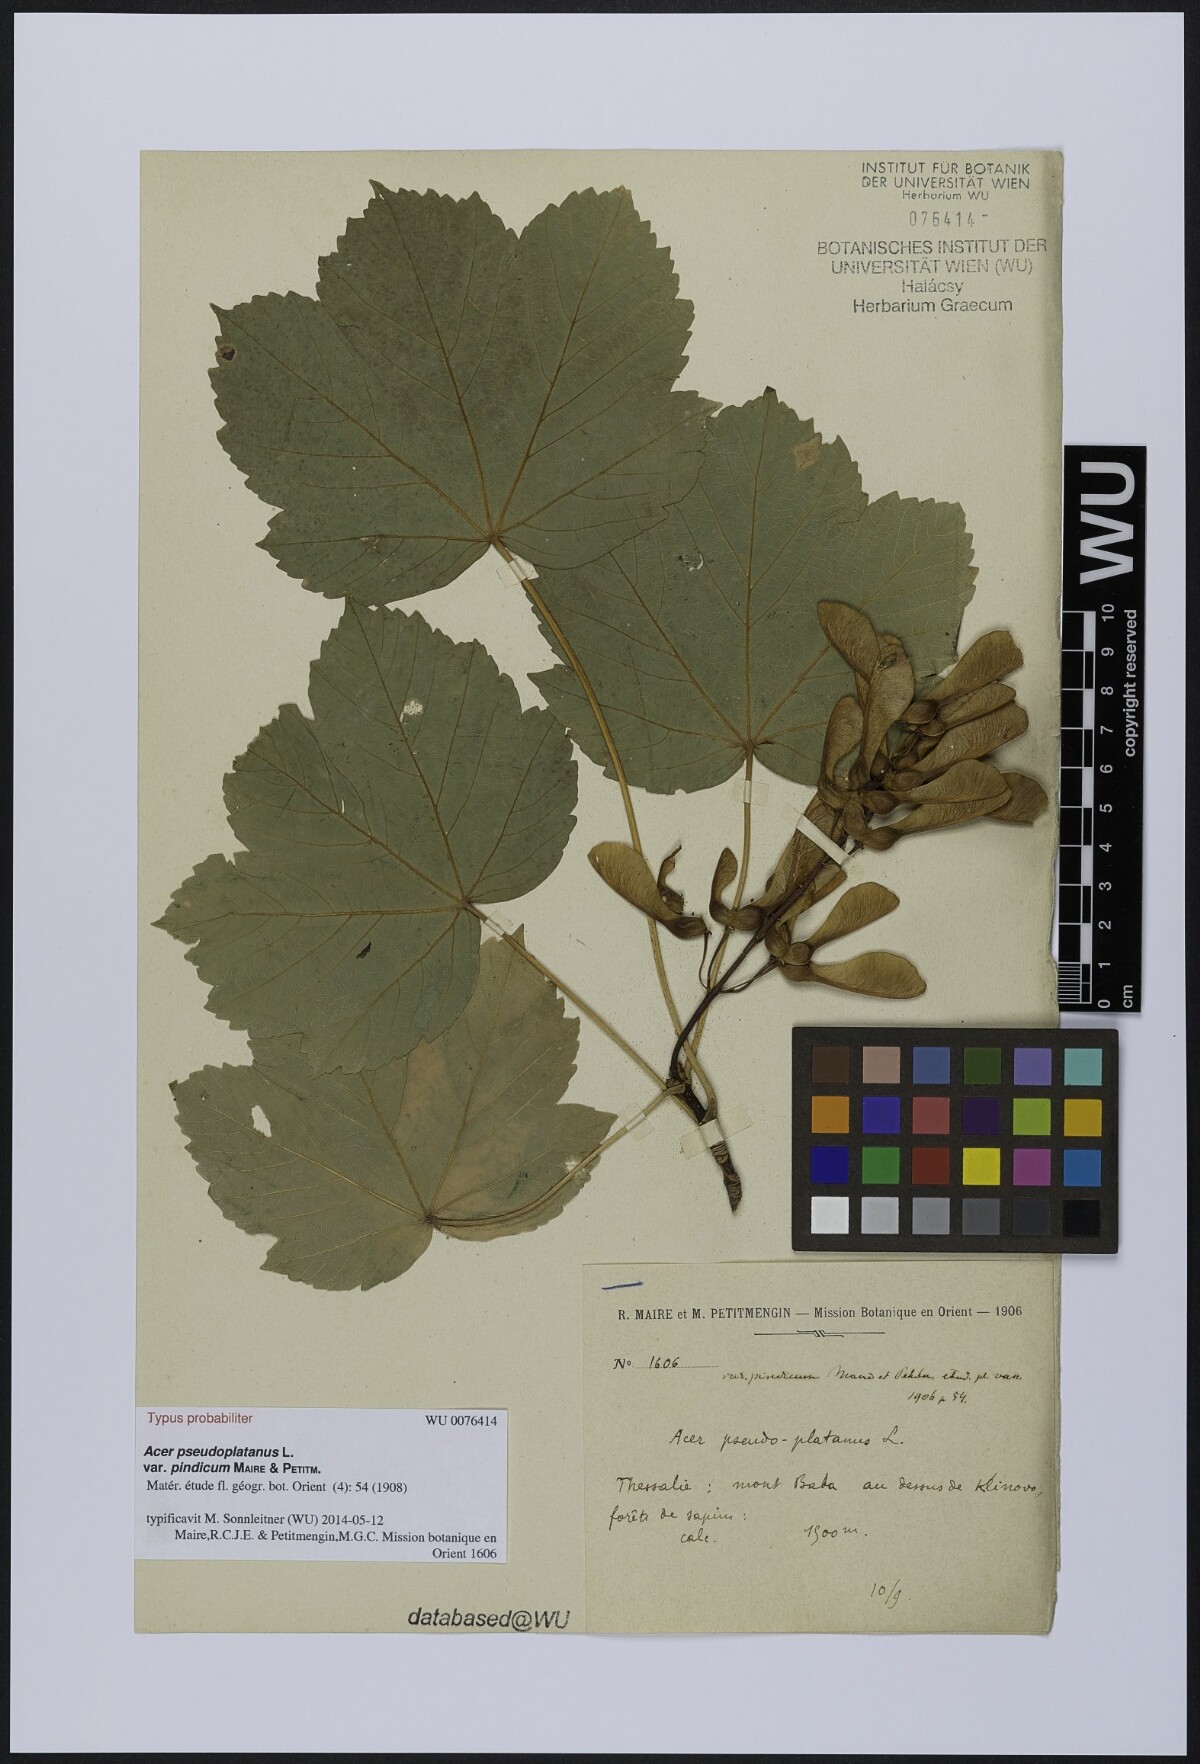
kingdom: Plantae
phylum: Tracheophyta
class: Magnoliopsida
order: Sapindales
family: Sapindaceae
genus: Acer
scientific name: Acer pseudoplatanus
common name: Sycamore
